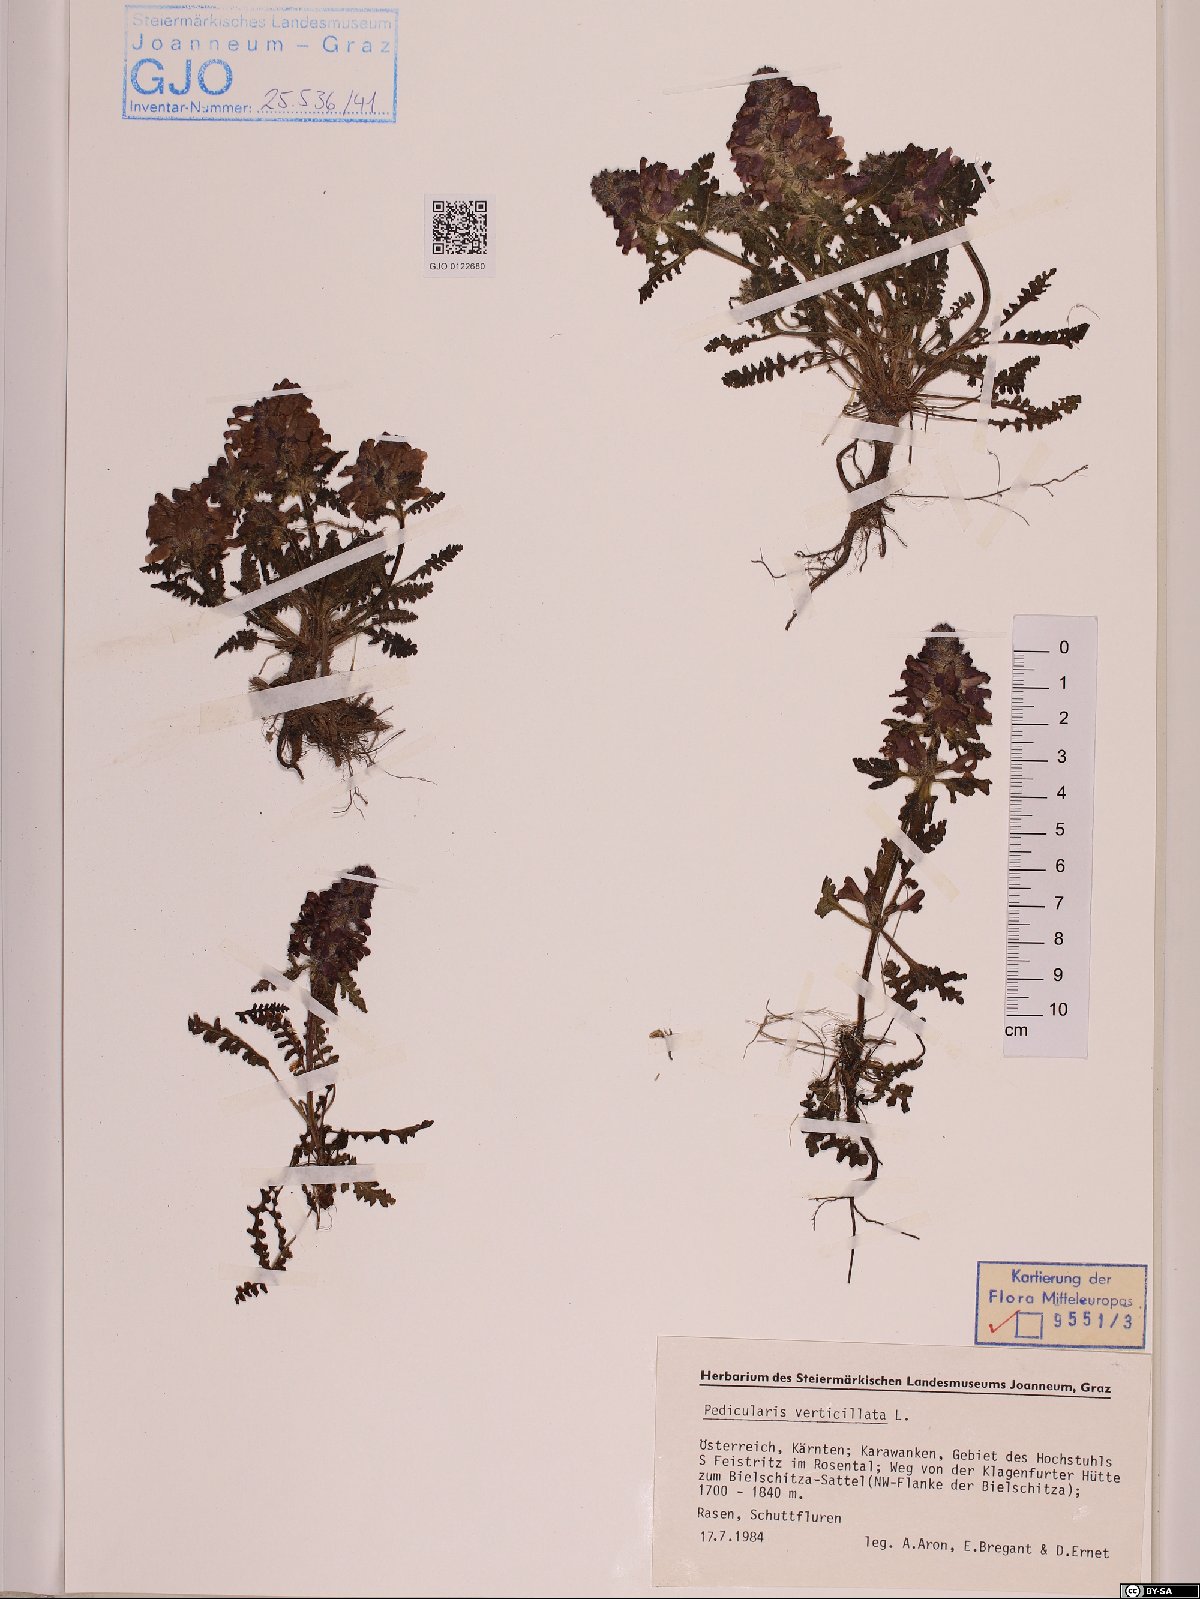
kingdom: Plantae
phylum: Tracheophyta
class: Magnoliopsida
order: Lamiales
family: Orobanchaceae
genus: Pedicularis
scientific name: Pedicularis verticillata
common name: Whorled lousewort
